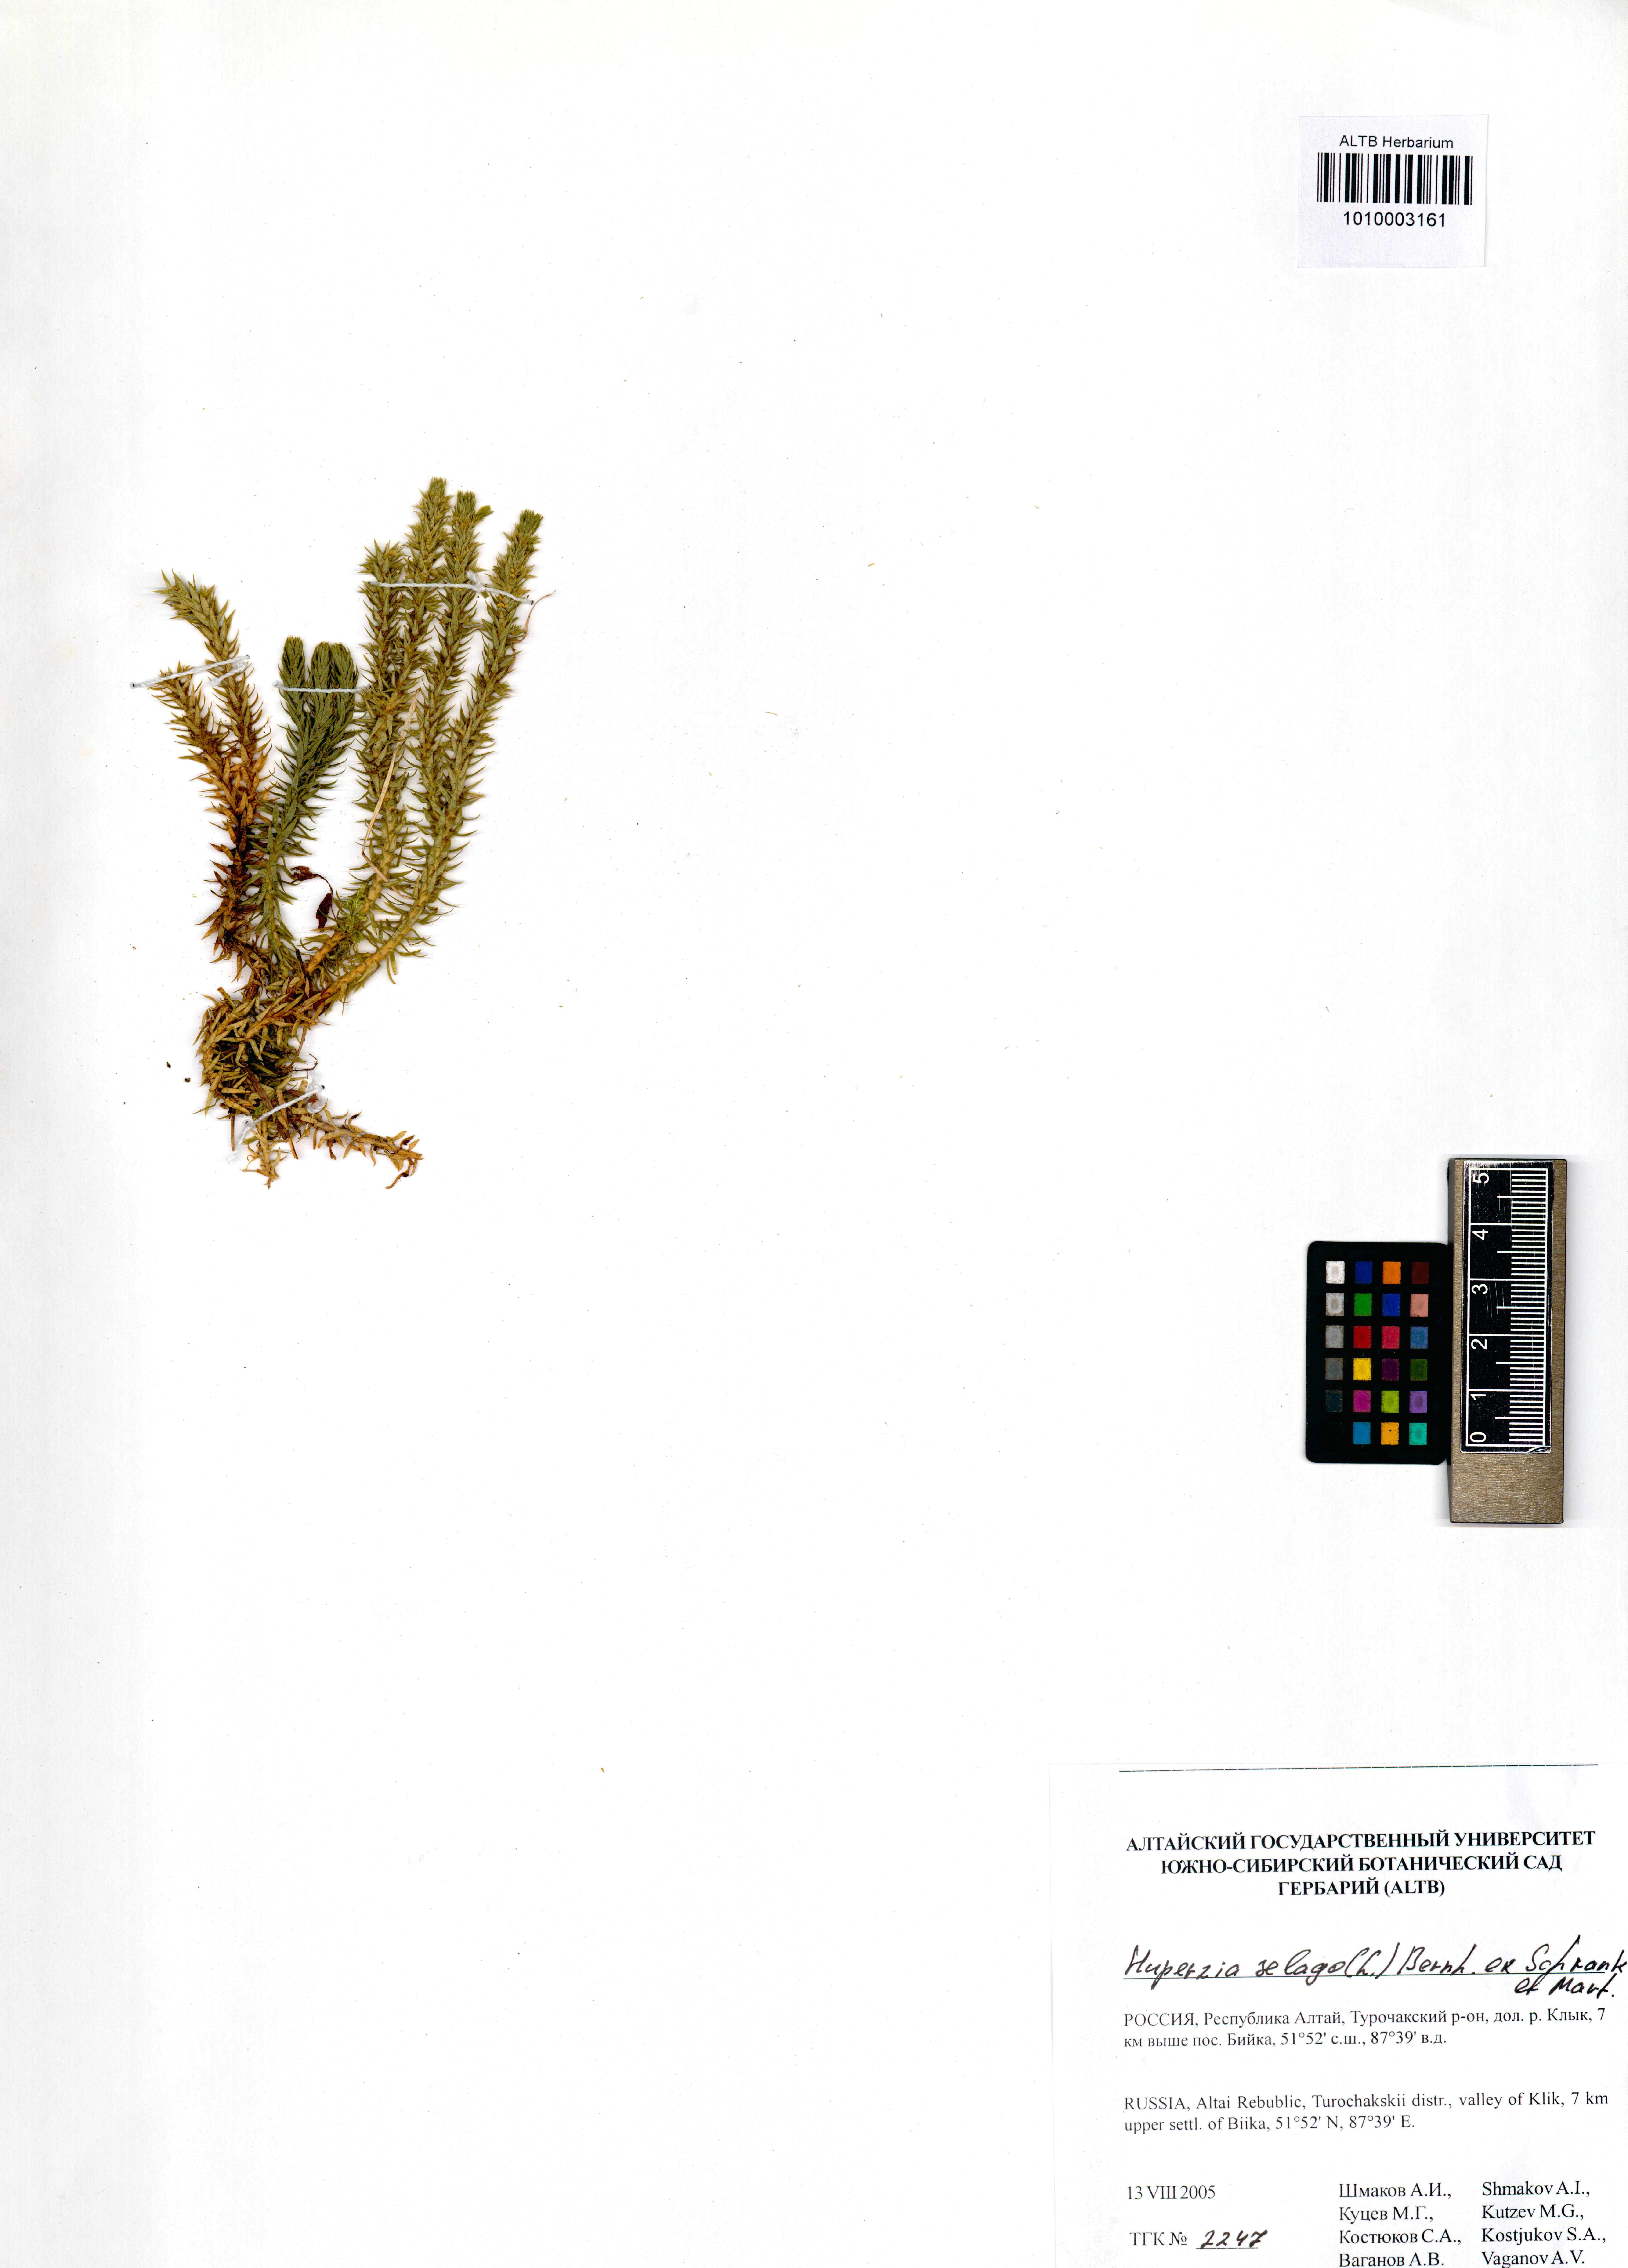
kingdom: Plantae
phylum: Tracheophyta
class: Lycopodiopsida
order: Lycopodiales
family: Lycopodiaceae
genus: Huperzia
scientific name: Huperzia selago
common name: Northern firmoss
